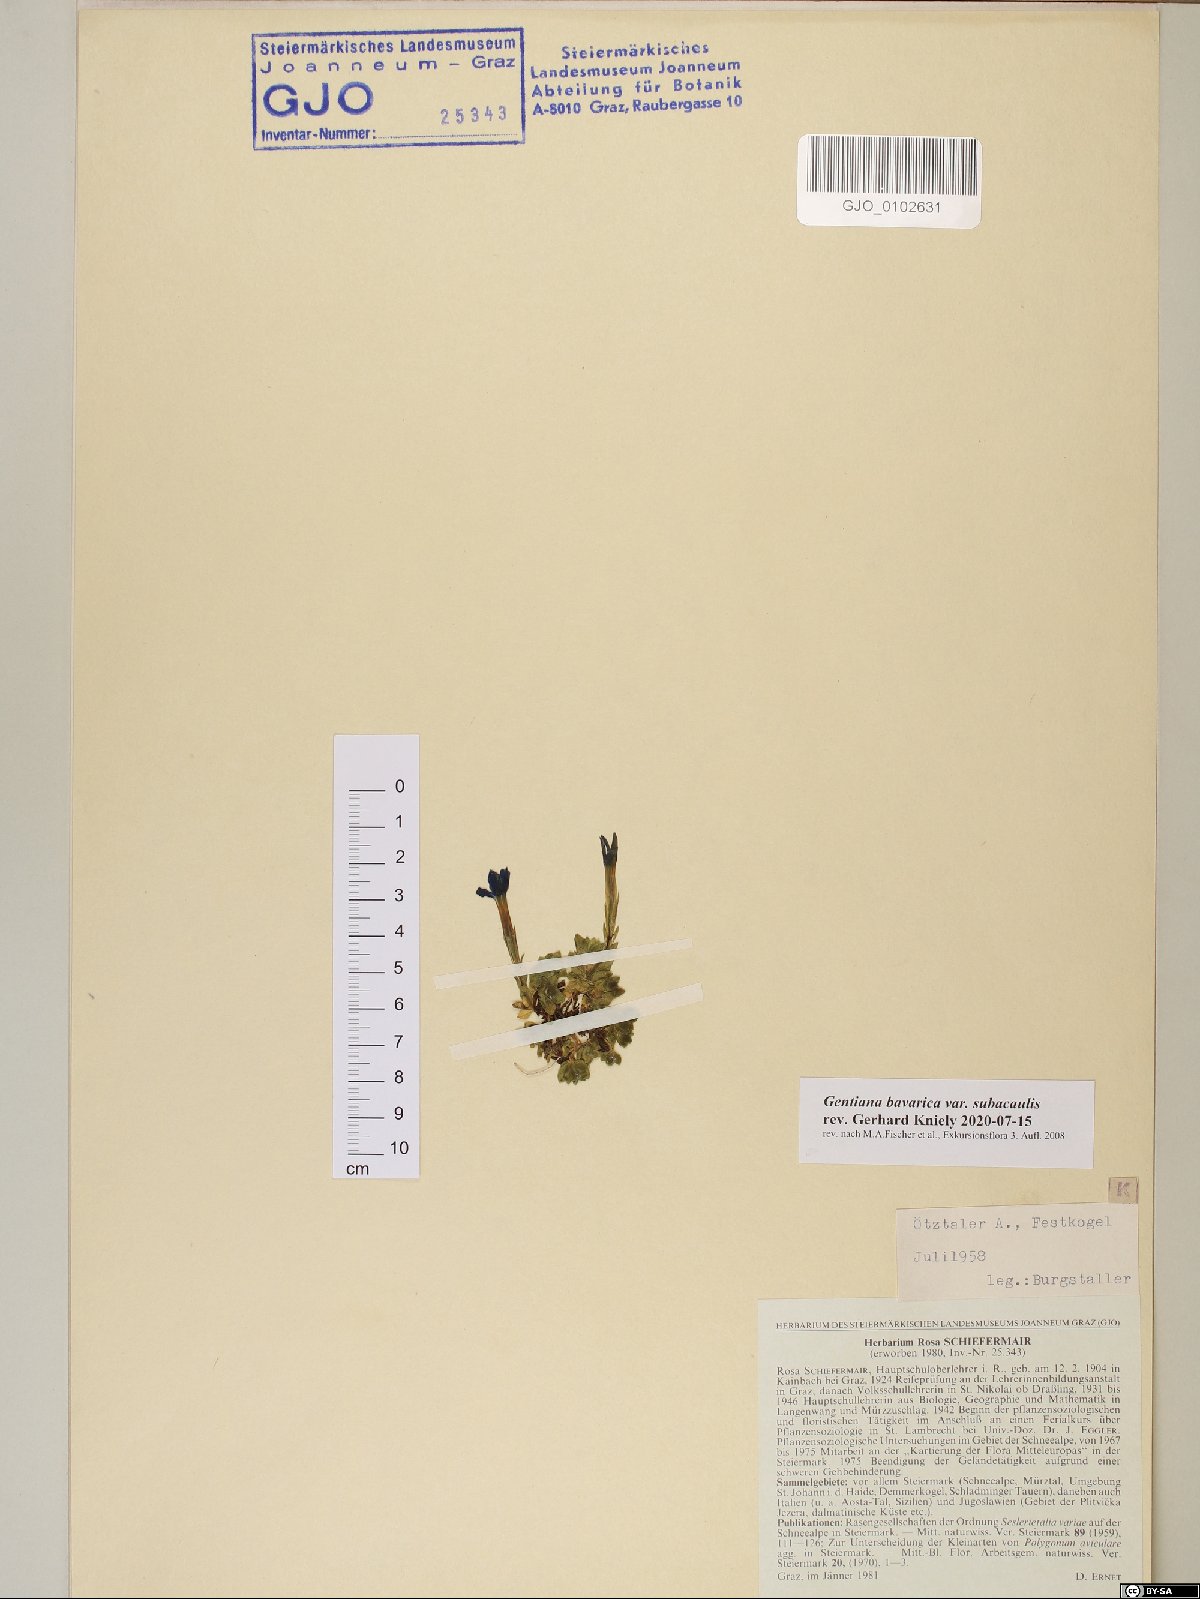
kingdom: Plantae
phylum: Tracheophyta
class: Magnoliopsida
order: Gentianales
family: Gentianaceae
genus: Gentiana
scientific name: Gentiana bavarica
